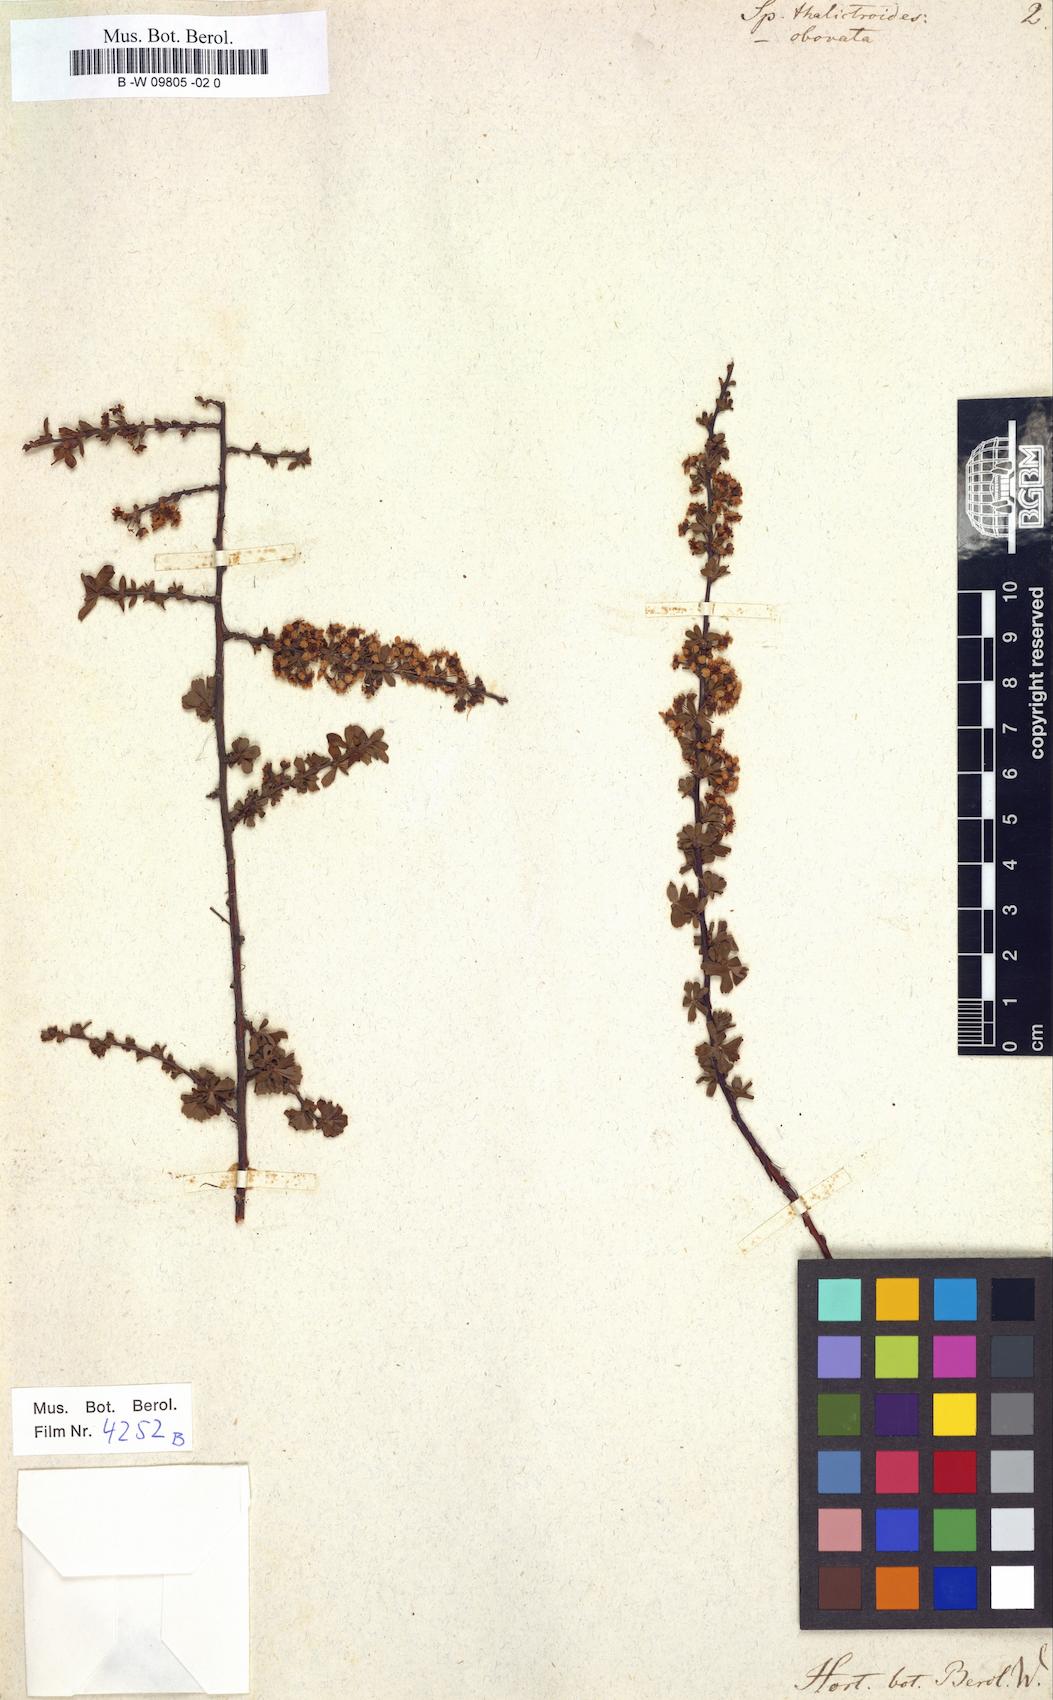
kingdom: Plantae
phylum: Tracheophyta
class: Magnoliopsida
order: Rosales
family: Rosaceae
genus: Spiraea
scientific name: Spiraea aquilegifolia
